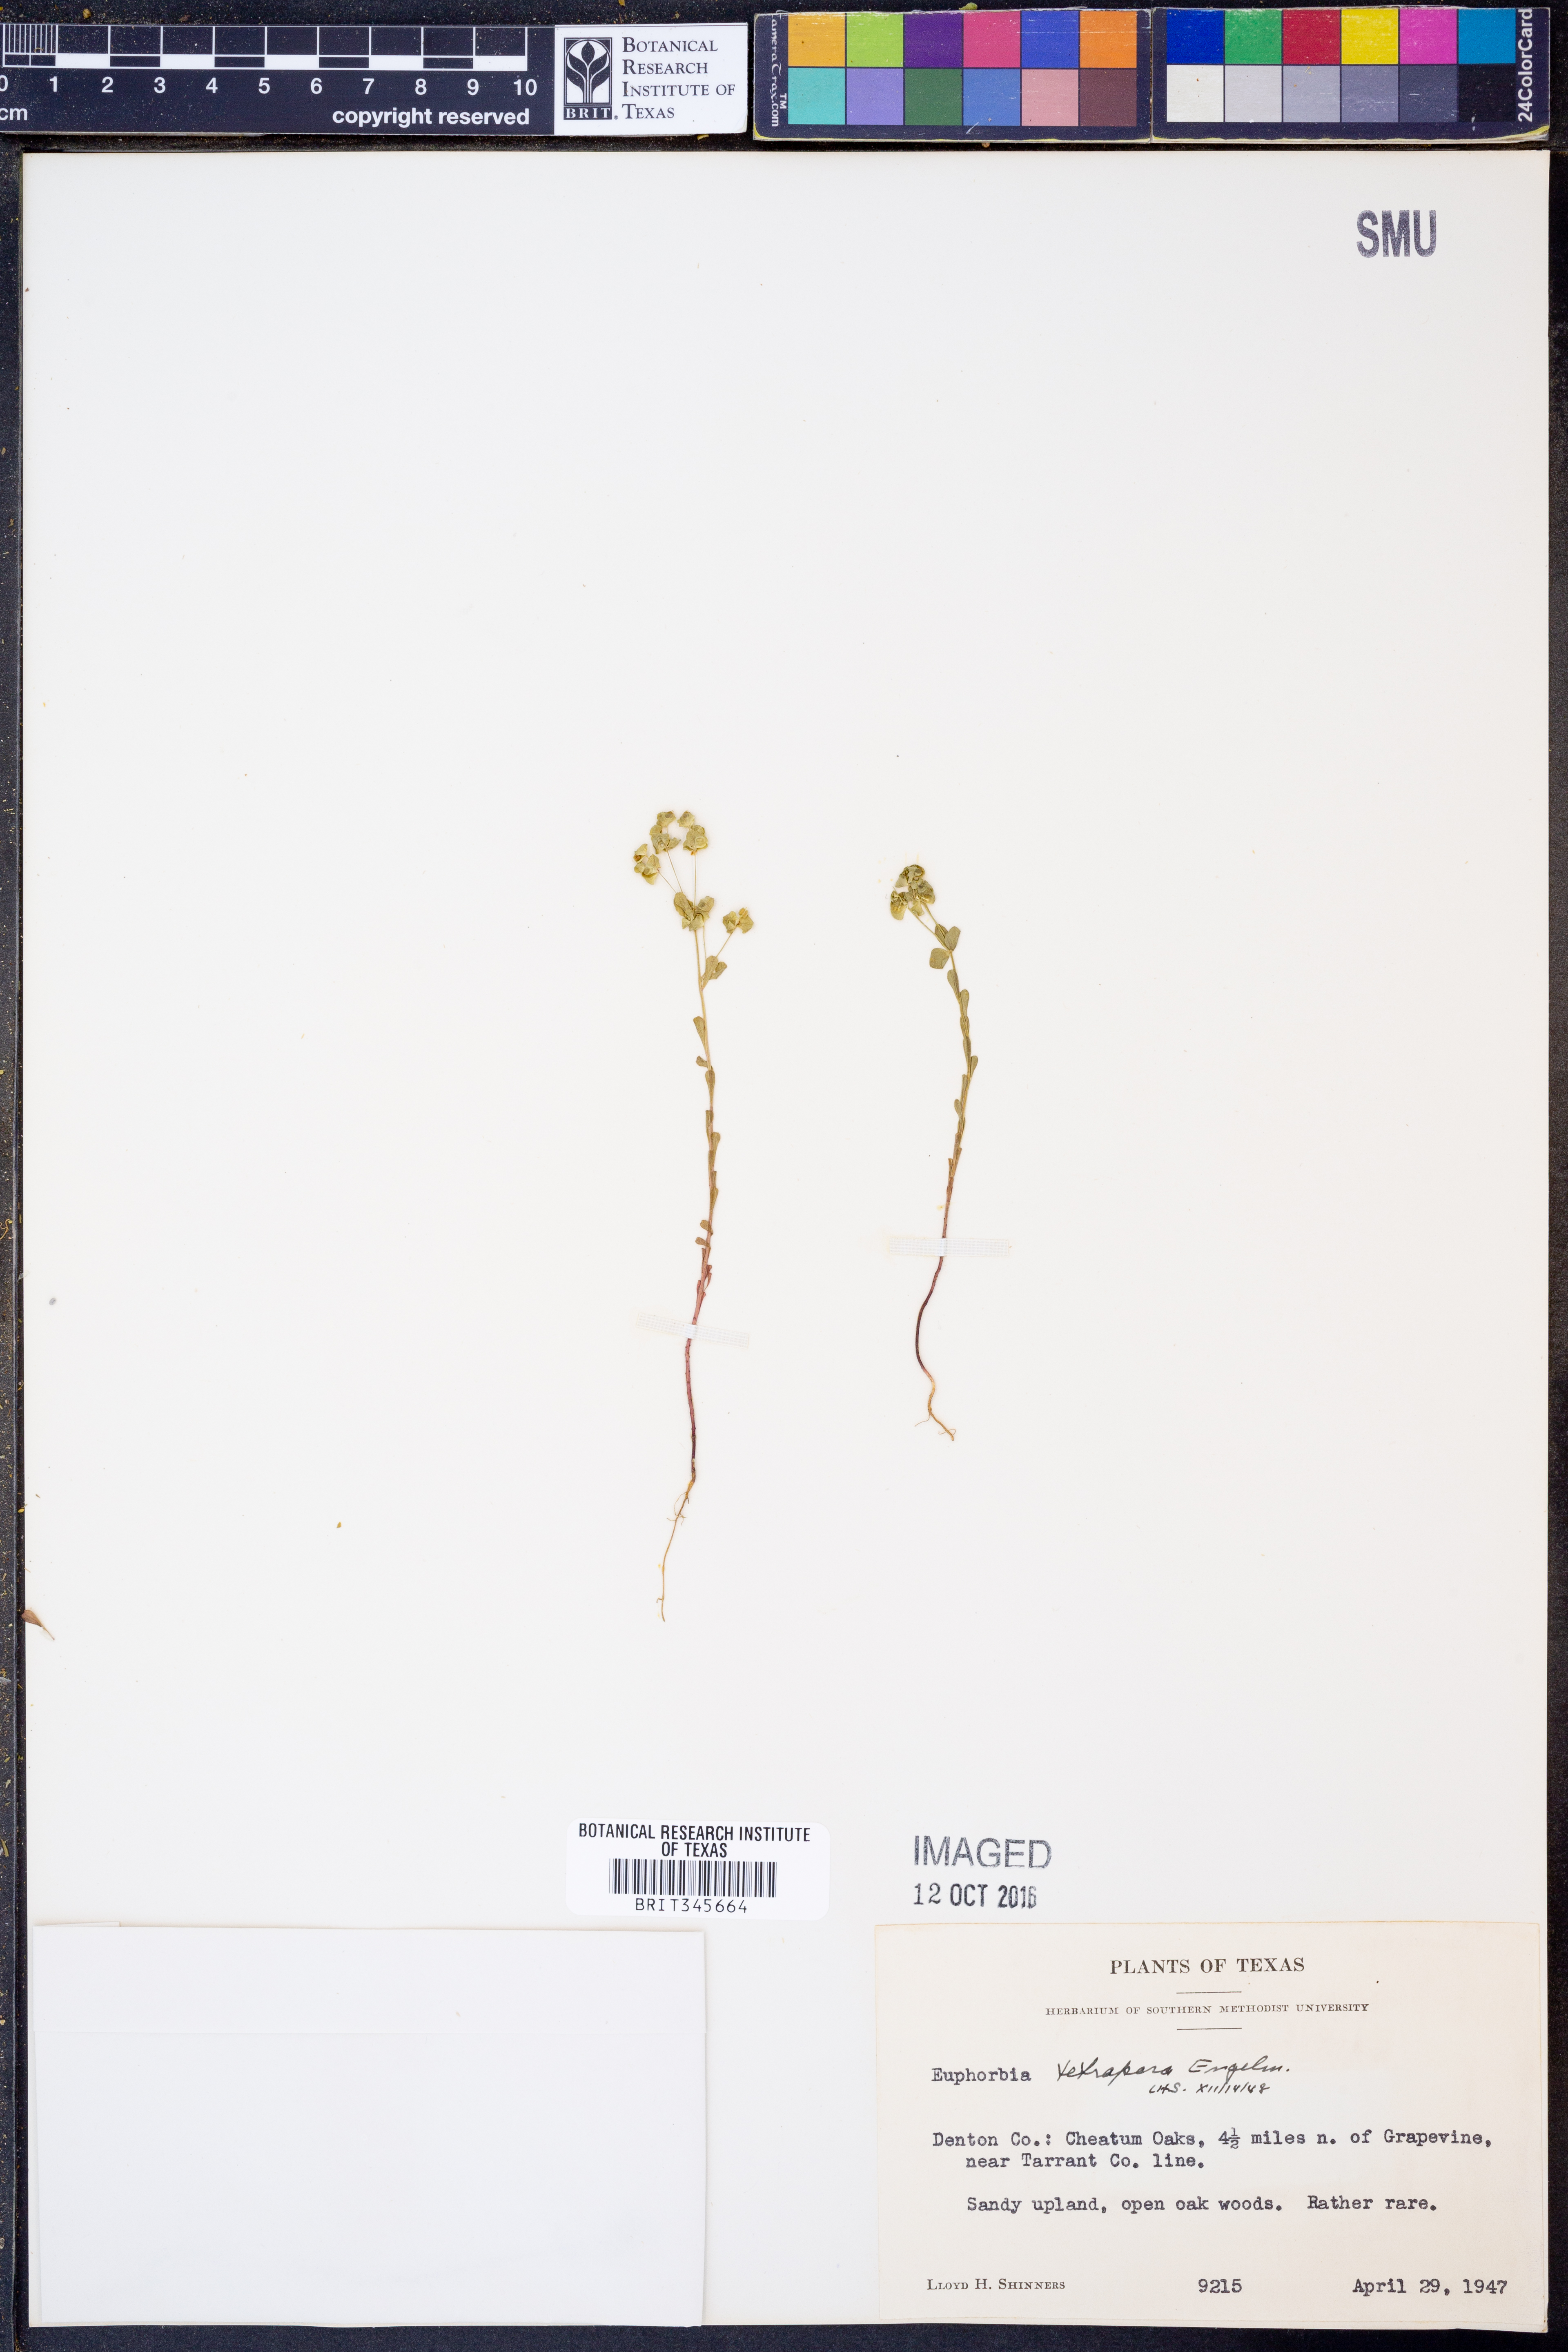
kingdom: Plantae
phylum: Tracheophyta
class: Magnoliopsida
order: Malpighiales
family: Euphorbiaceae
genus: Euphorbia
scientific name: Euphorbia tetrapora
